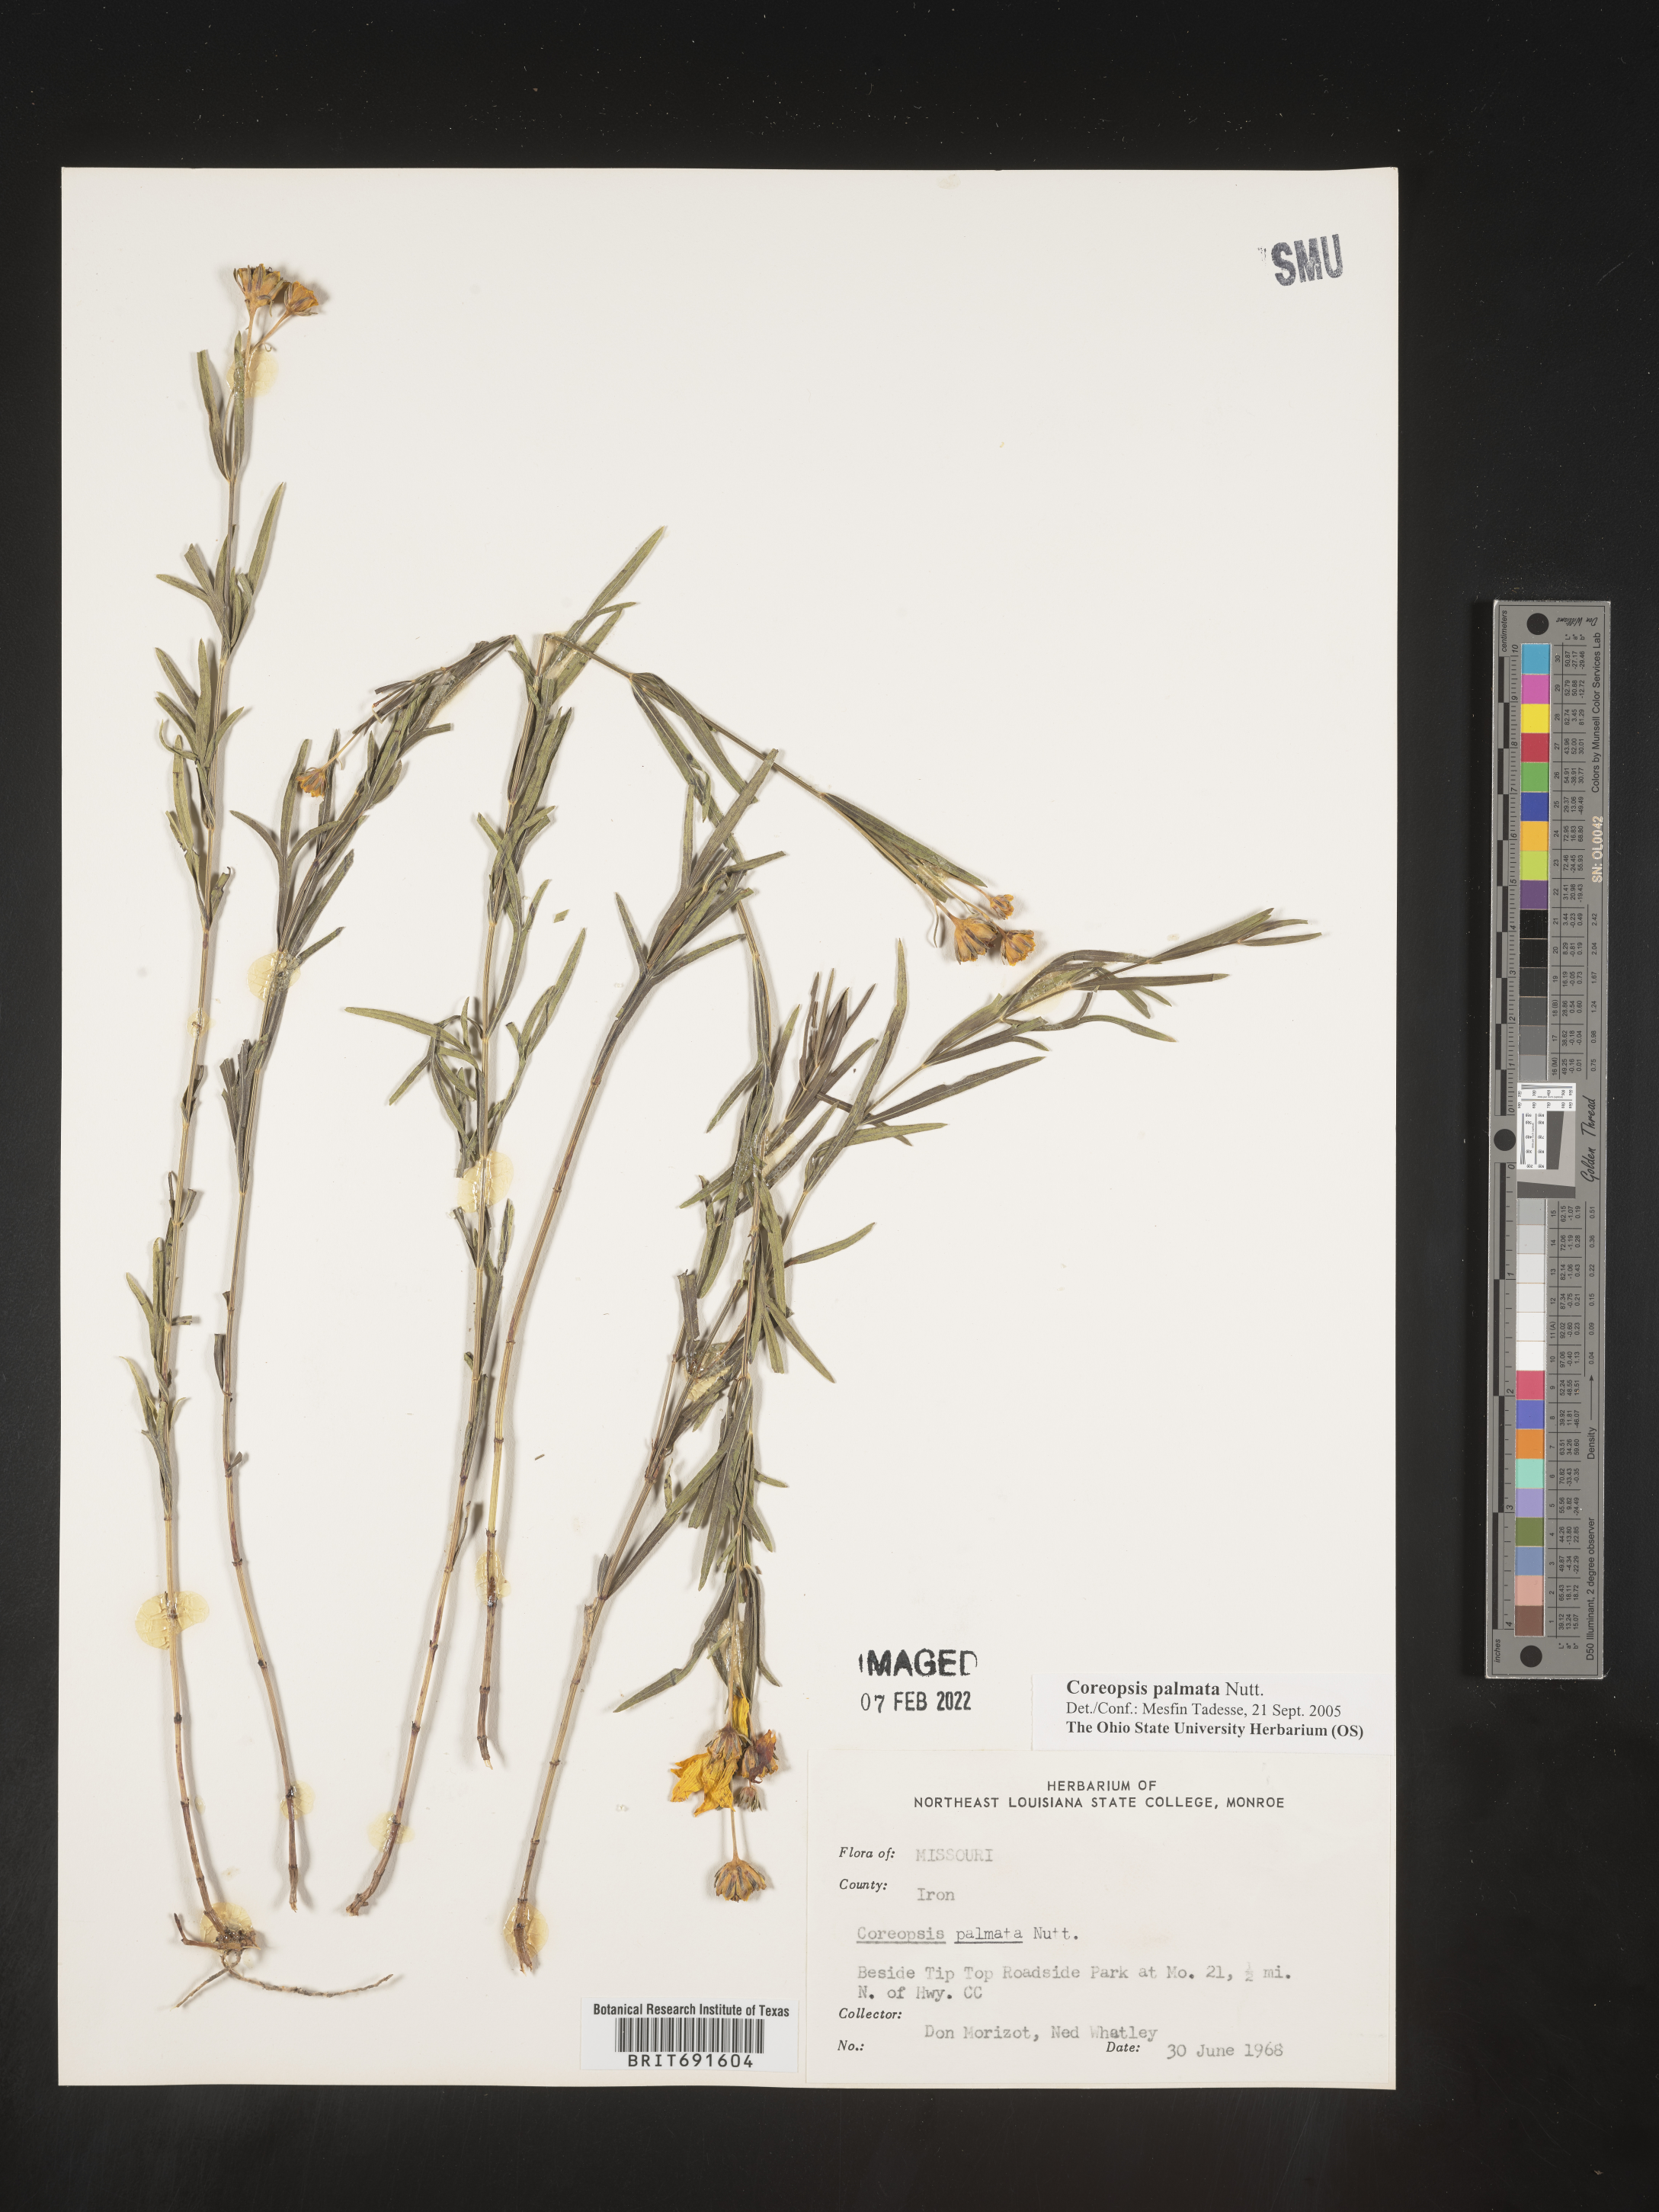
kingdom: Plantae
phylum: Tracheophyta
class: Magnoliopsida
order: Asterales
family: Asteraceae
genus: Coreopsis
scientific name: Coreopsis palmata
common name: Prairie coreopsis
